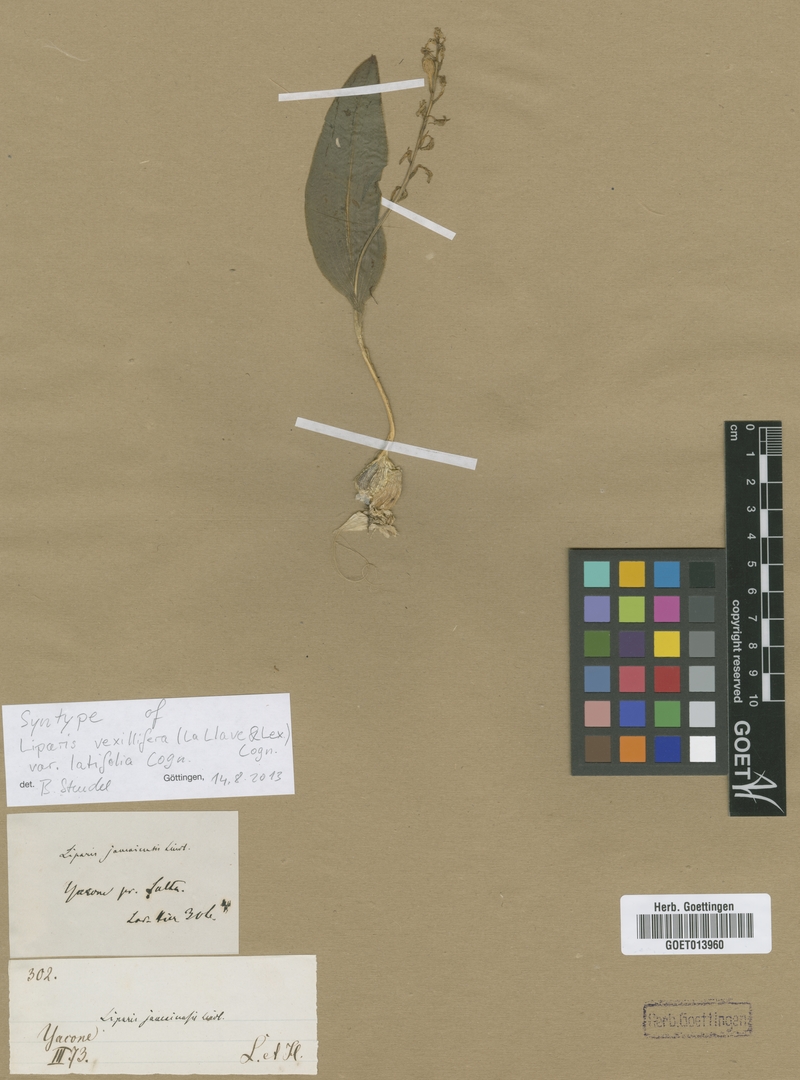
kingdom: Plantae
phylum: Tracheophyta
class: Liliopsida
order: Asparagales
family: Orchidaceae
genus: Liparis
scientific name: Liparis vexillifera
